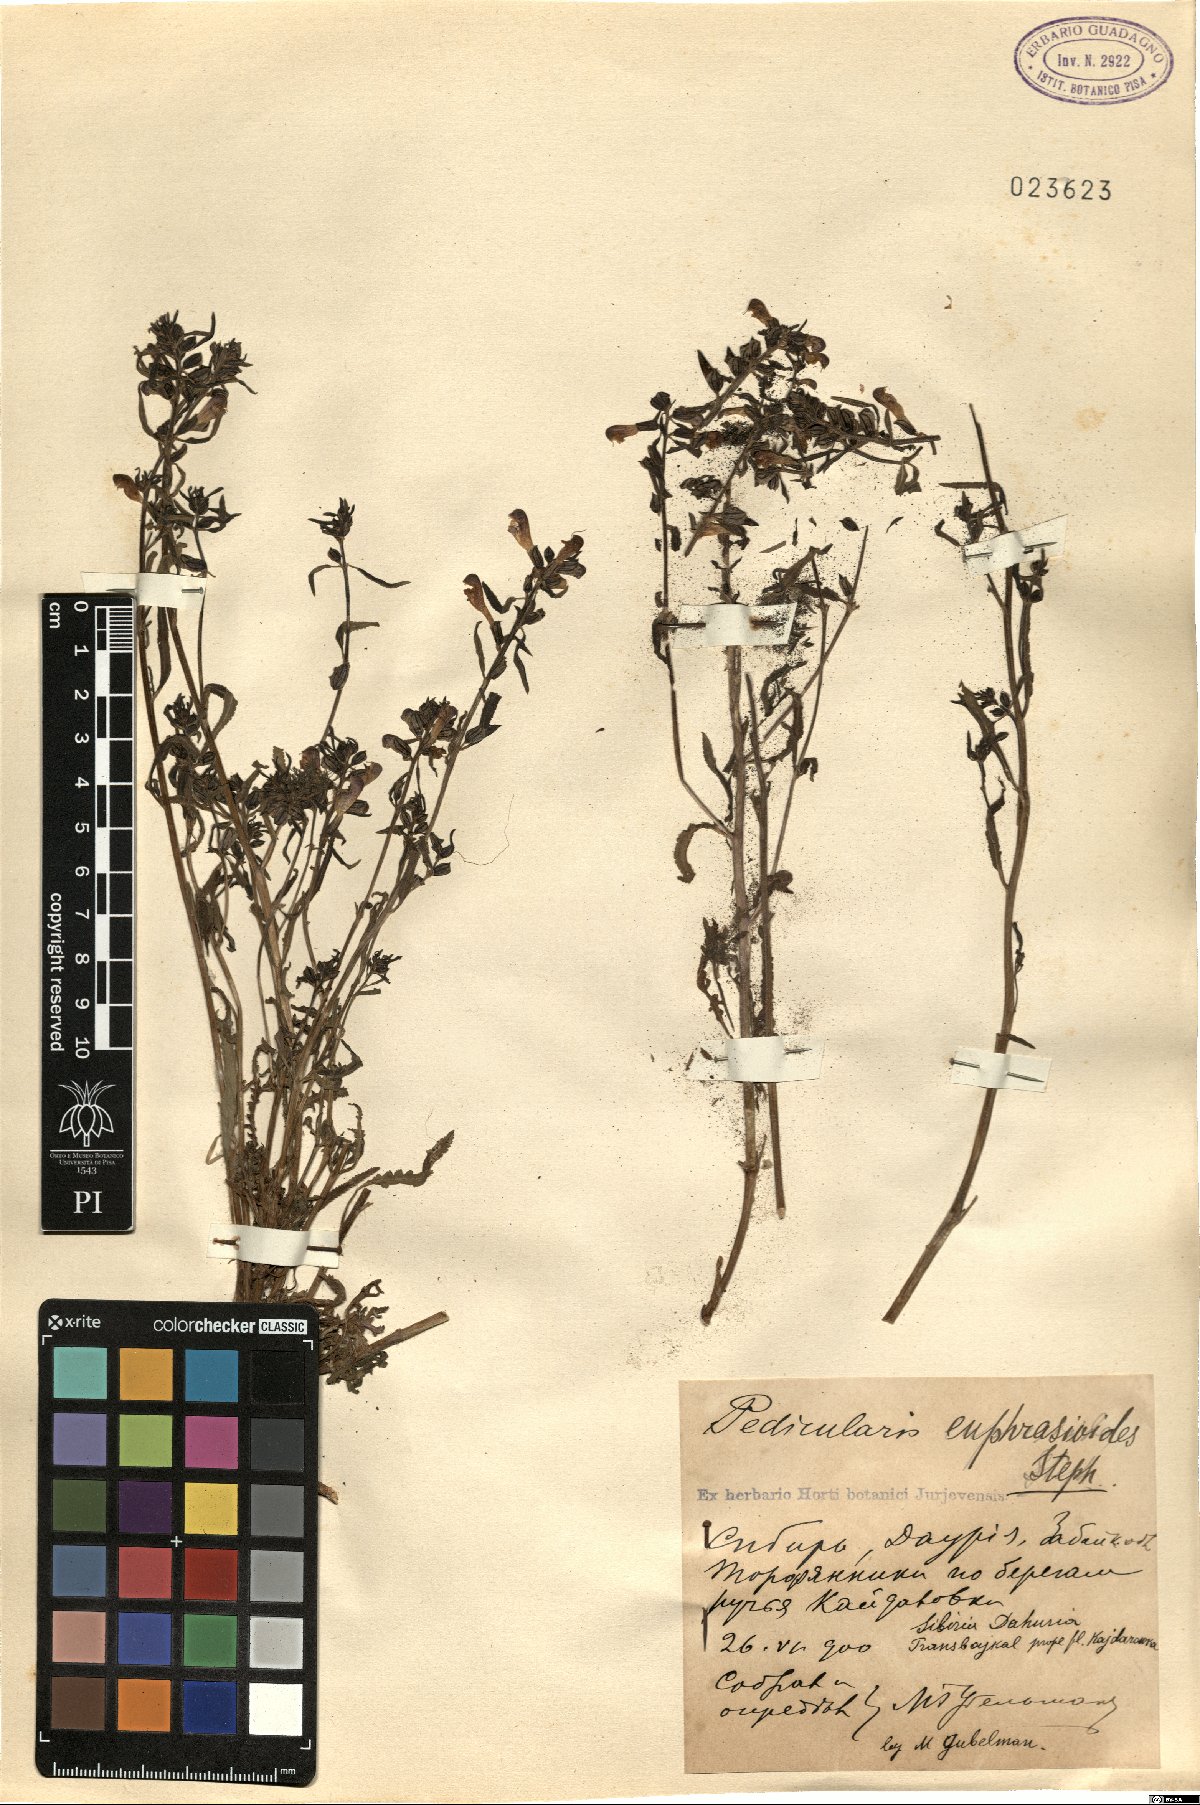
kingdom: Plantae
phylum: Tracheophyta
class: Magnoliopsida
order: Lamiales
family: Orobanchaceae
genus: Pedicularis
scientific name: Pedicularis labradorica
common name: Labrador lousewort
